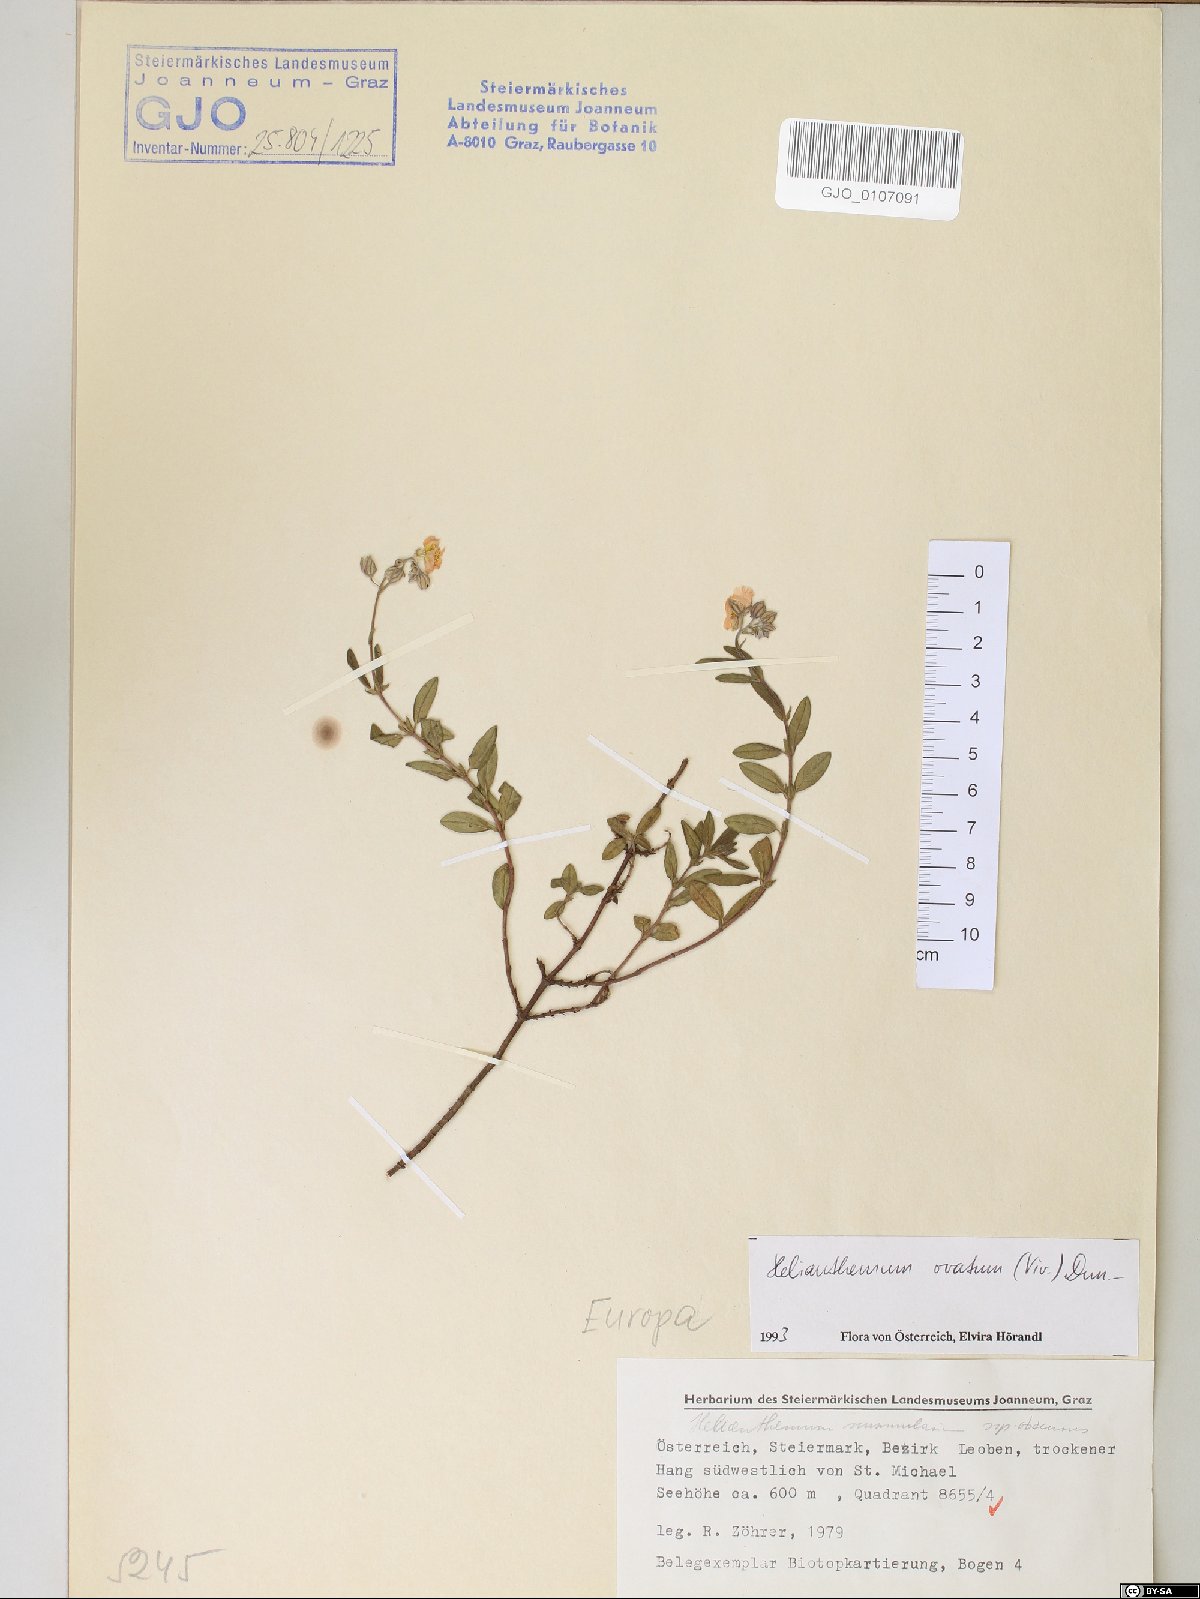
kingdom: Plantae
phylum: Tracheophyta
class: Magnoliopsida
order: Malvales
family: Cistaceae
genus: Helianthemum
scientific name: Helianthemum nummularium
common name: Common rock-rose
